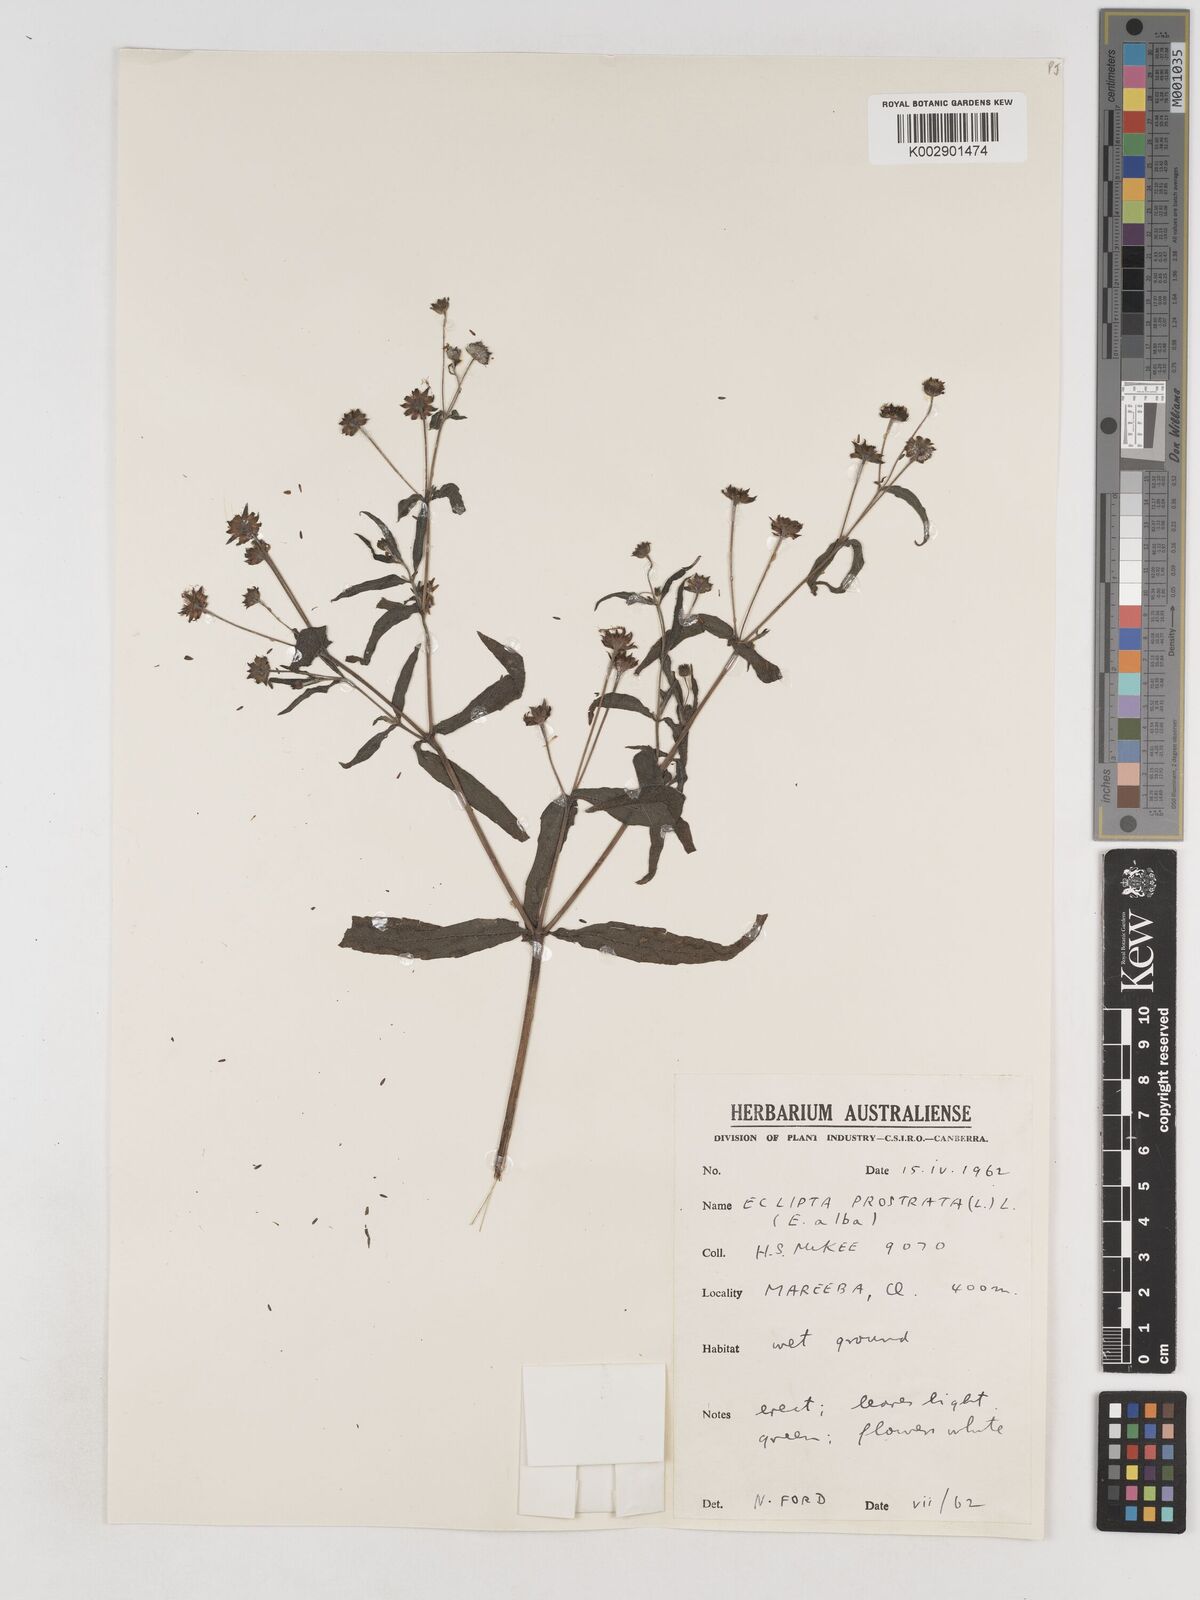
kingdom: Plantae
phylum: Tracheophyta
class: Magnoliopsida
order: Asterales
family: Asteraceae
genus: Eclipta
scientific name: Eclipta prostrata
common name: False daisy
